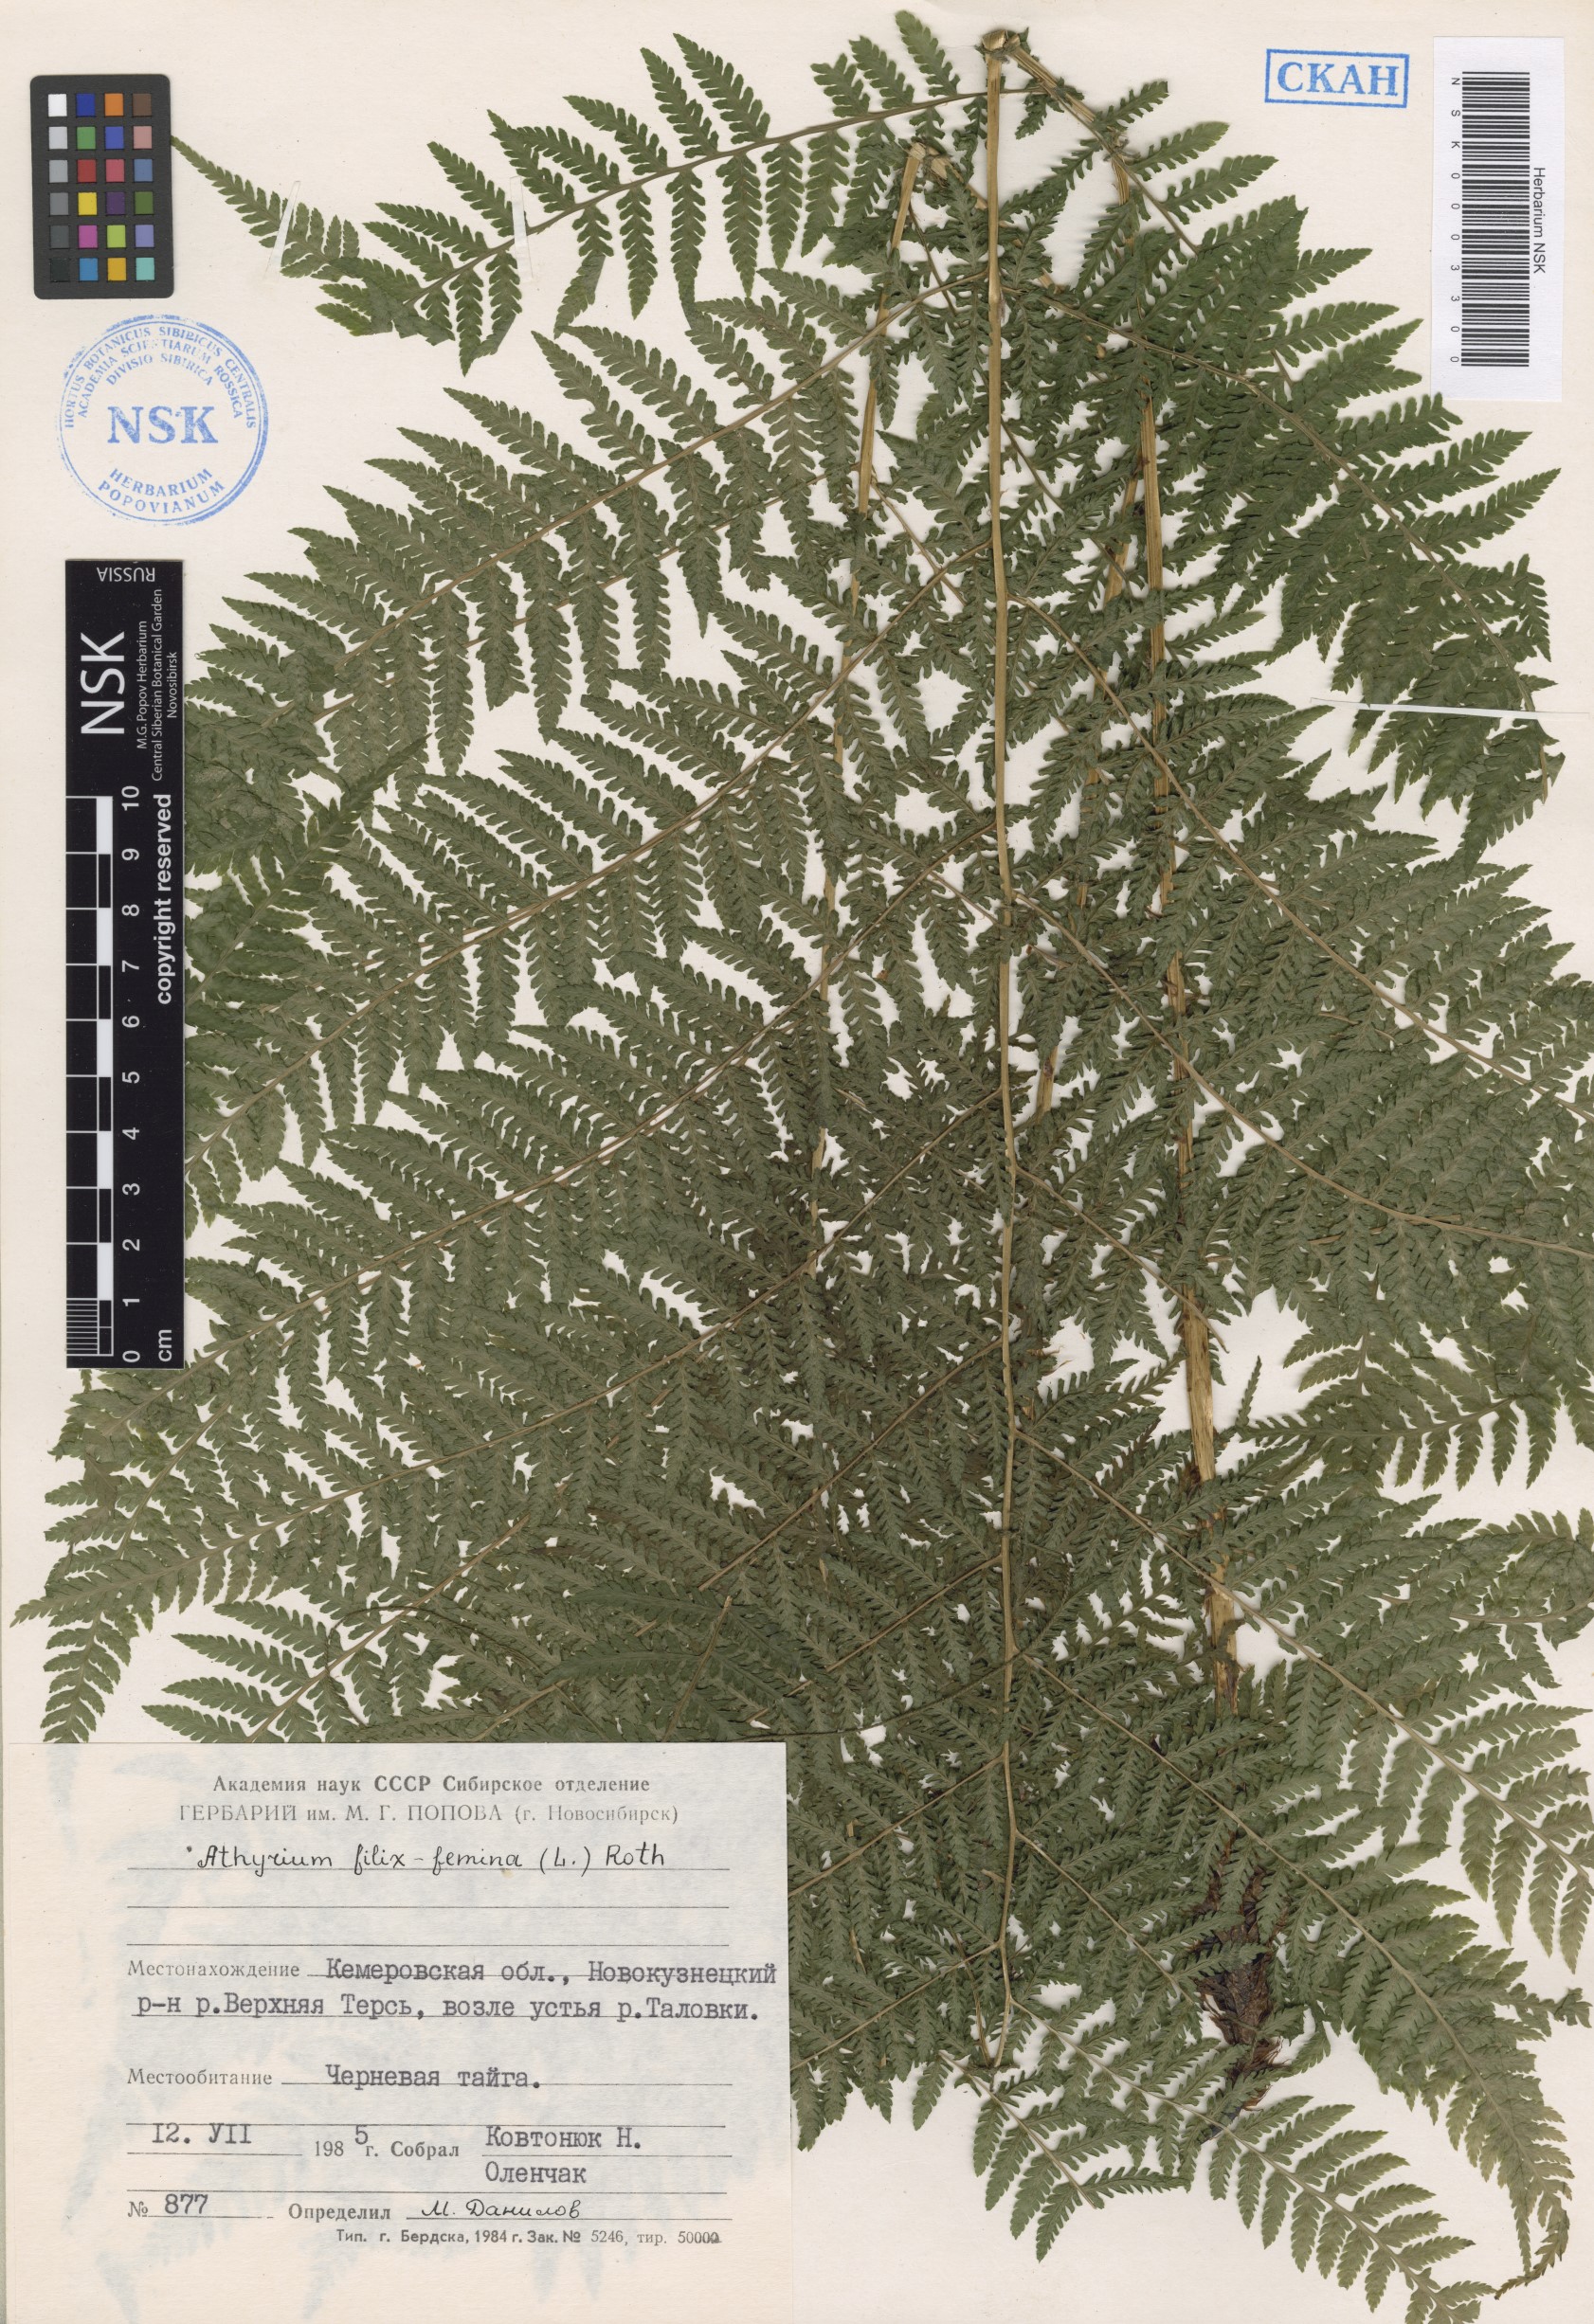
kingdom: Plantae
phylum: Tracheophyta
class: Polypodiopsida
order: Polypodiales
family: Athyriaceae
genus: Athyrium
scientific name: Athyrium filix-femina
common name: Lady fern
